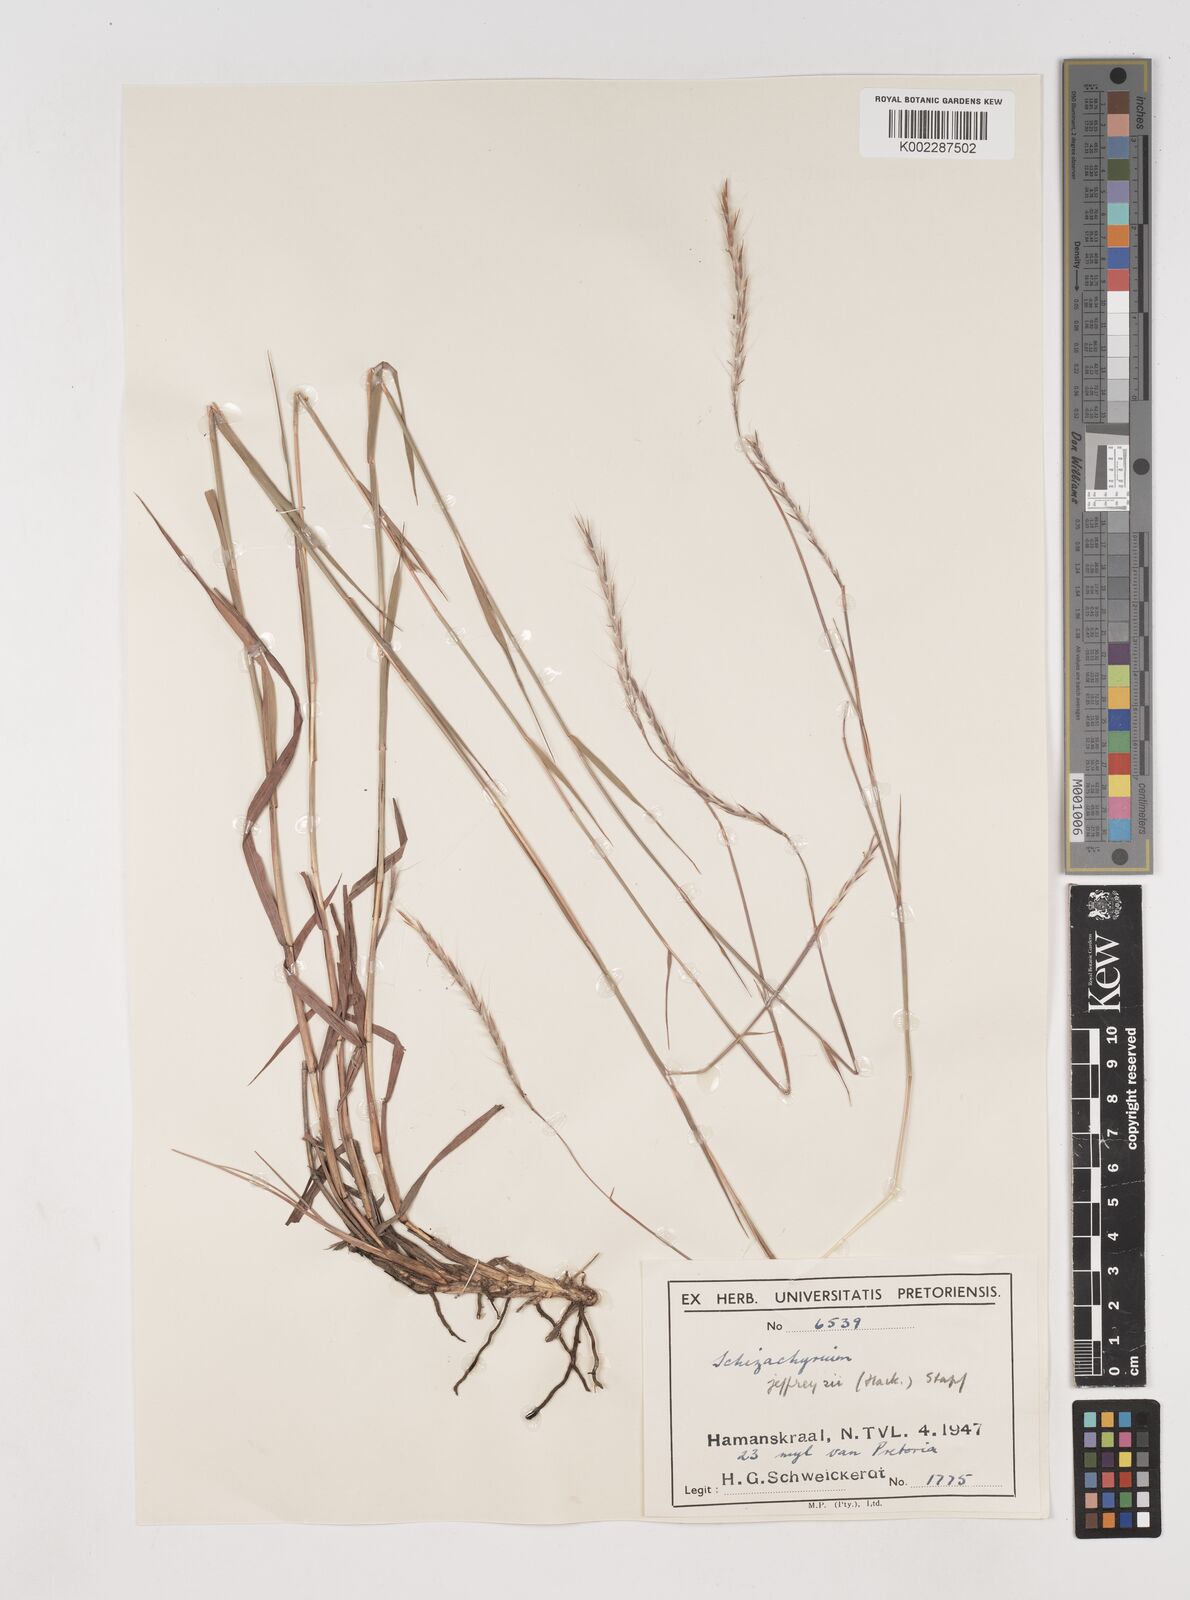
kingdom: Plantae
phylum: Tracheophyta
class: Liliopsida
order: Poales
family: Poaceae
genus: Schizachyrium
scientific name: Schizachyrium jeffreysii
